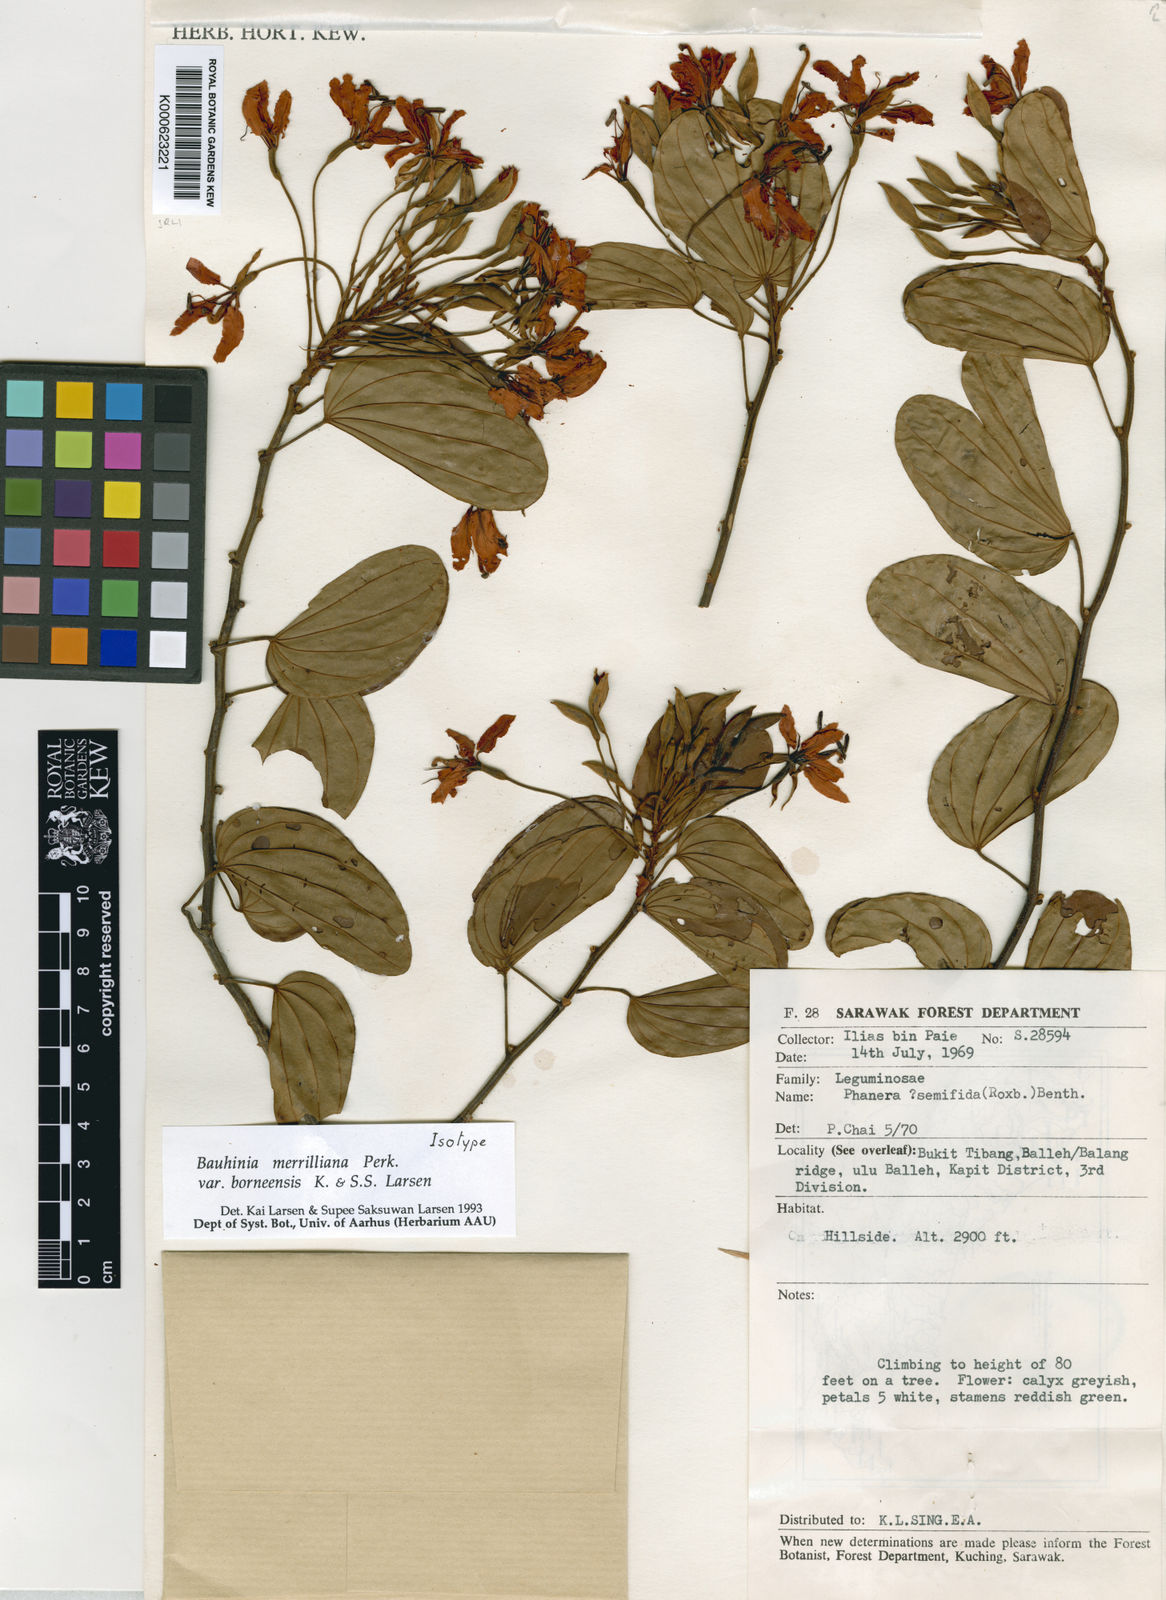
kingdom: Plantae
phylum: Tracheophyta
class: Magnoliopsida
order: Fabales
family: Fabaceae
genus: Phanera
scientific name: Phanera merrilliana
